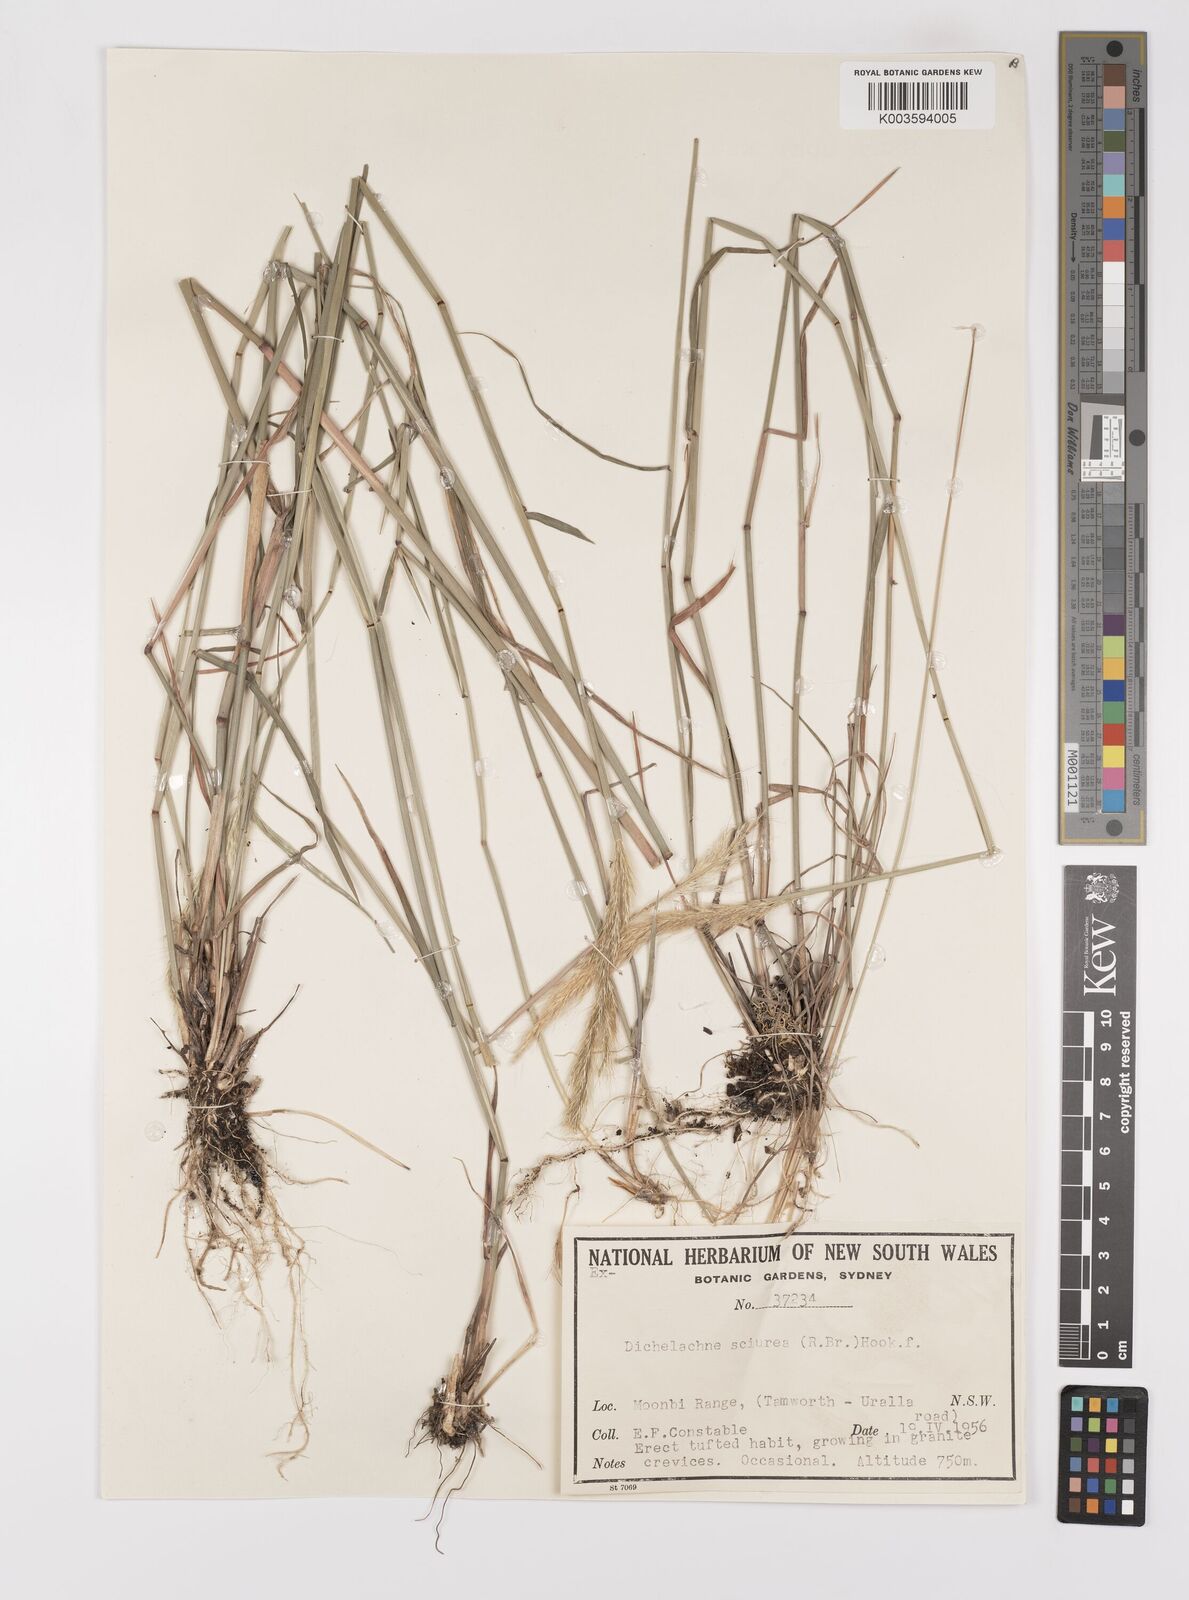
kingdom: Plantae
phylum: Tracheophyta
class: Liliopsida
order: Poales
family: Poaceae
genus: Dichelachne
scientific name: Dichelachne micrantha
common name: Plumegrass
